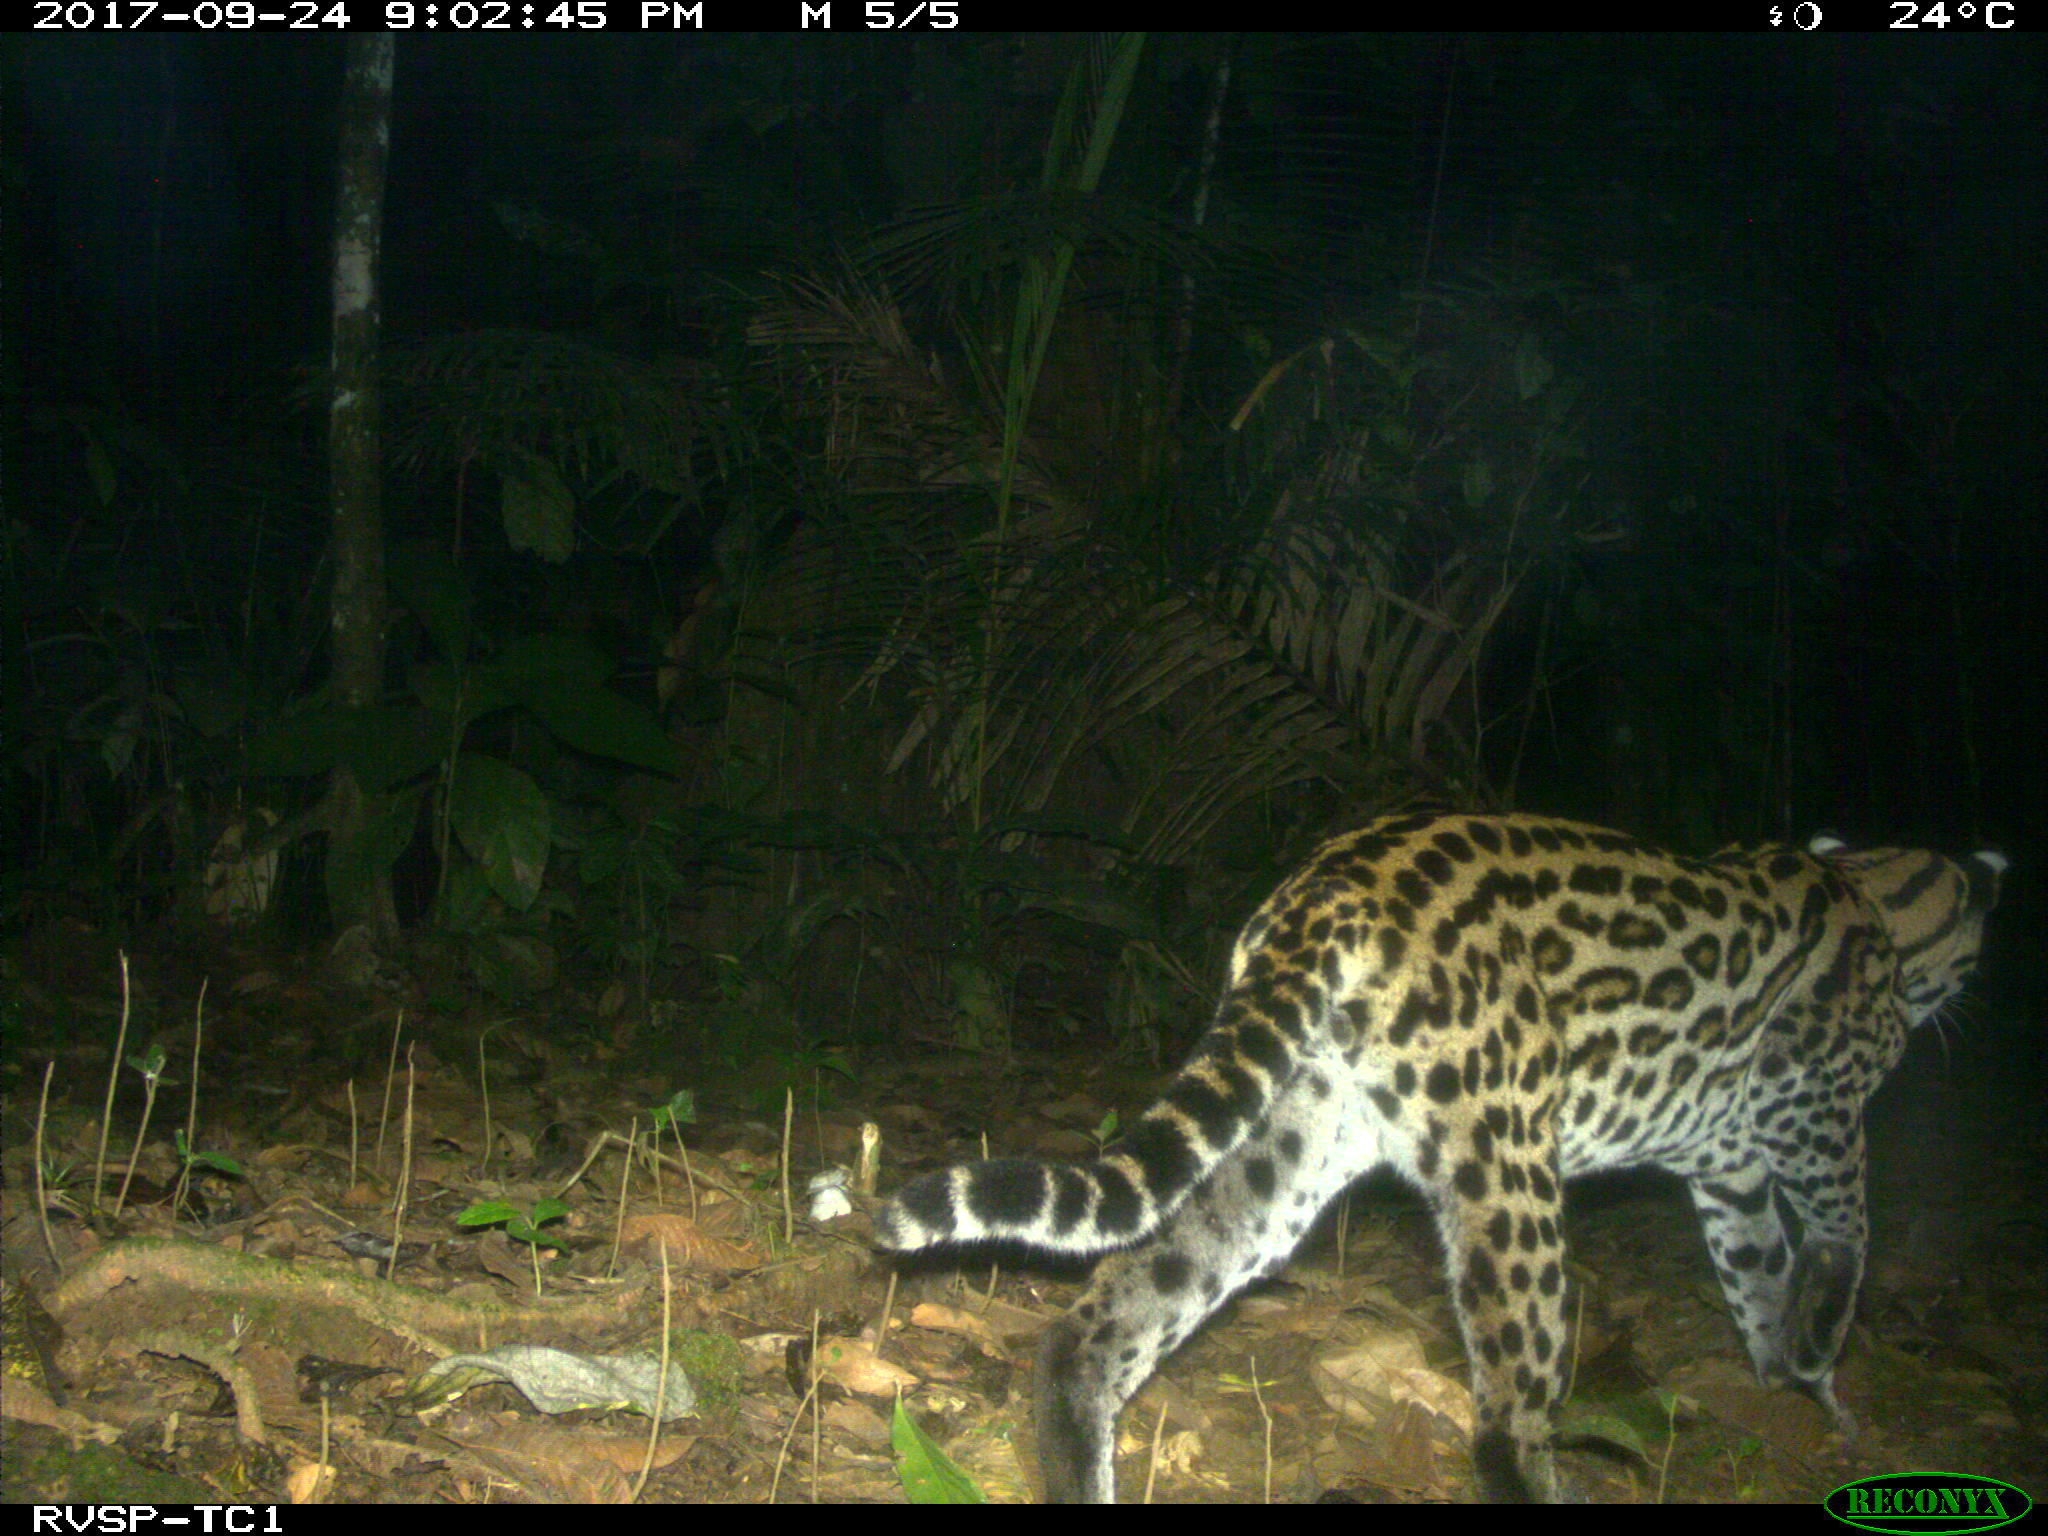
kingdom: Animalia
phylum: Chordata
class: Mammalia
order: Carnivora
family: Felidae
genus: Leopardus
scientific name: Leopardus pardalis
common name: Ocelot
